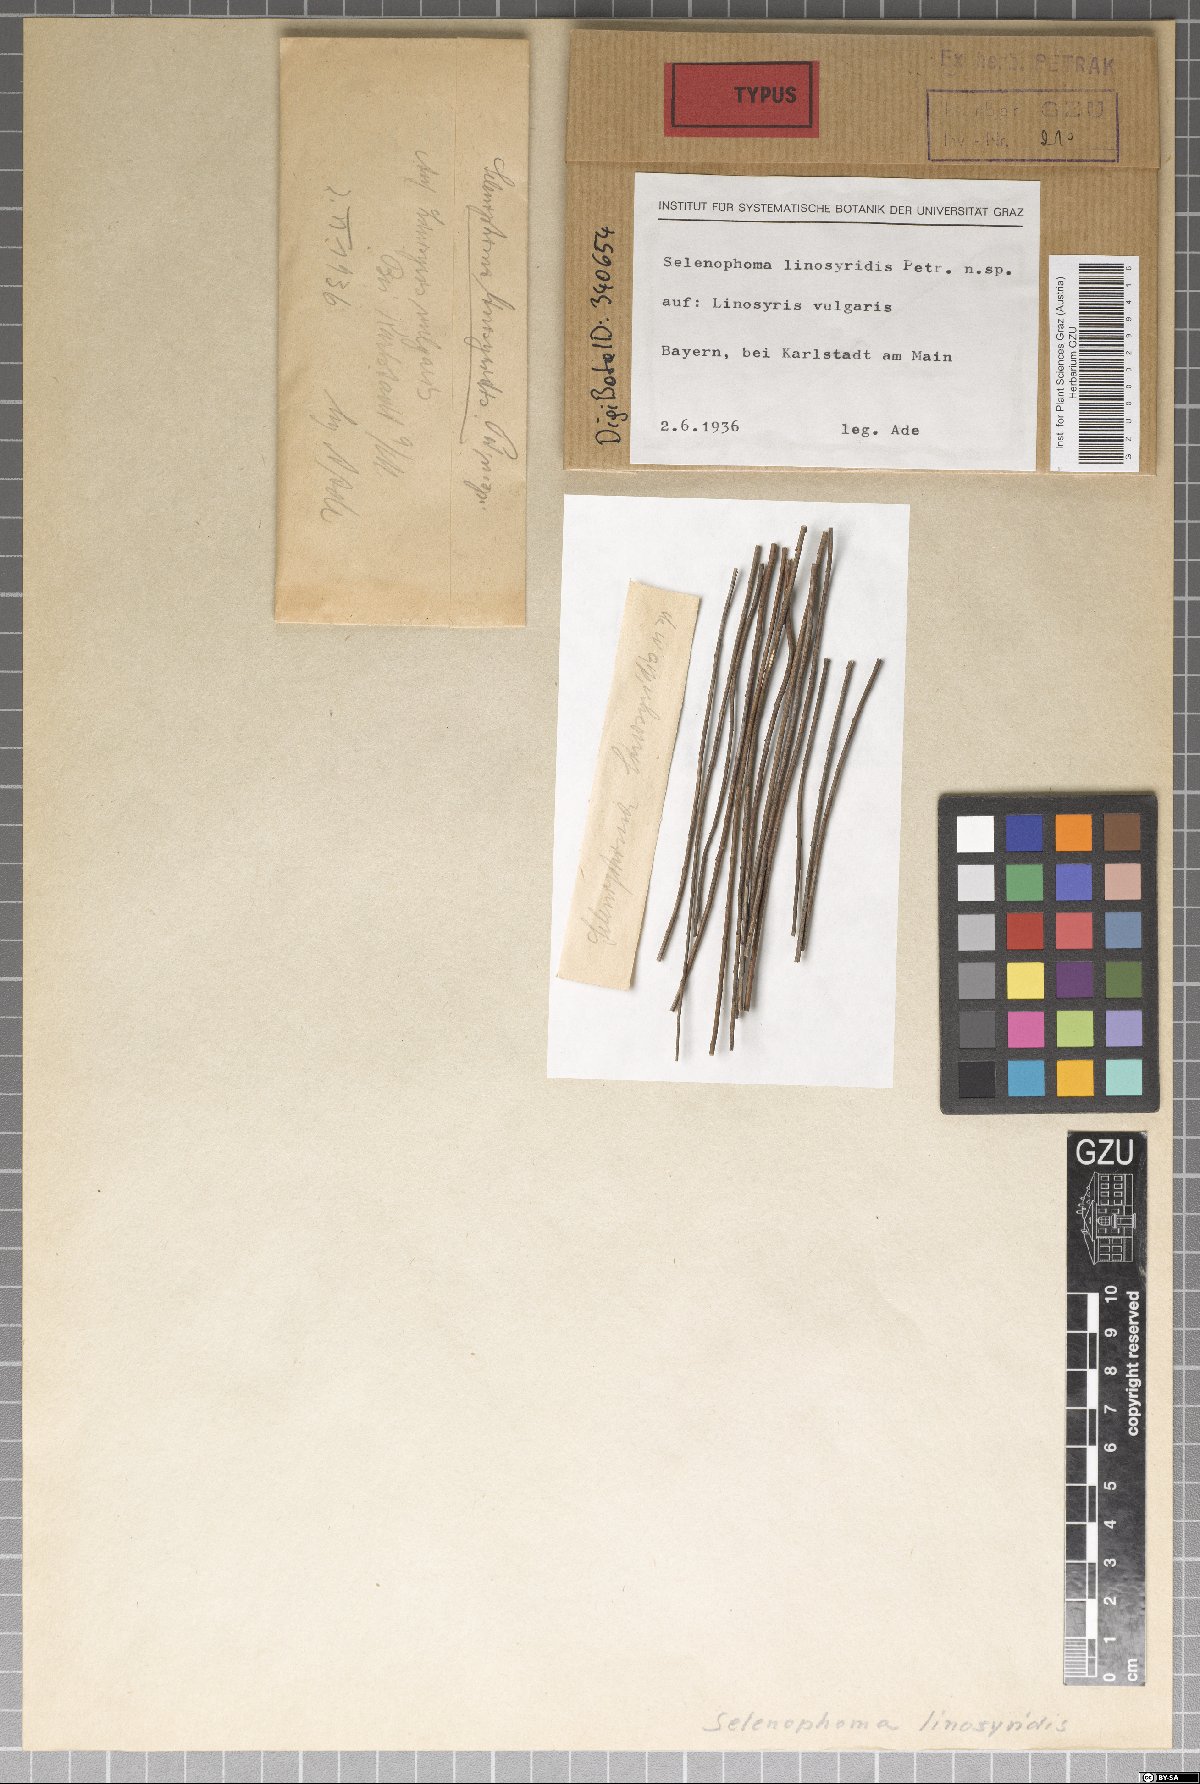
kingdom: Fungi
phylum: Ascomycota
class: Dothideomycetes
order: Dothideales
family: Dothioraceae
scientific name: Dothioraceae
